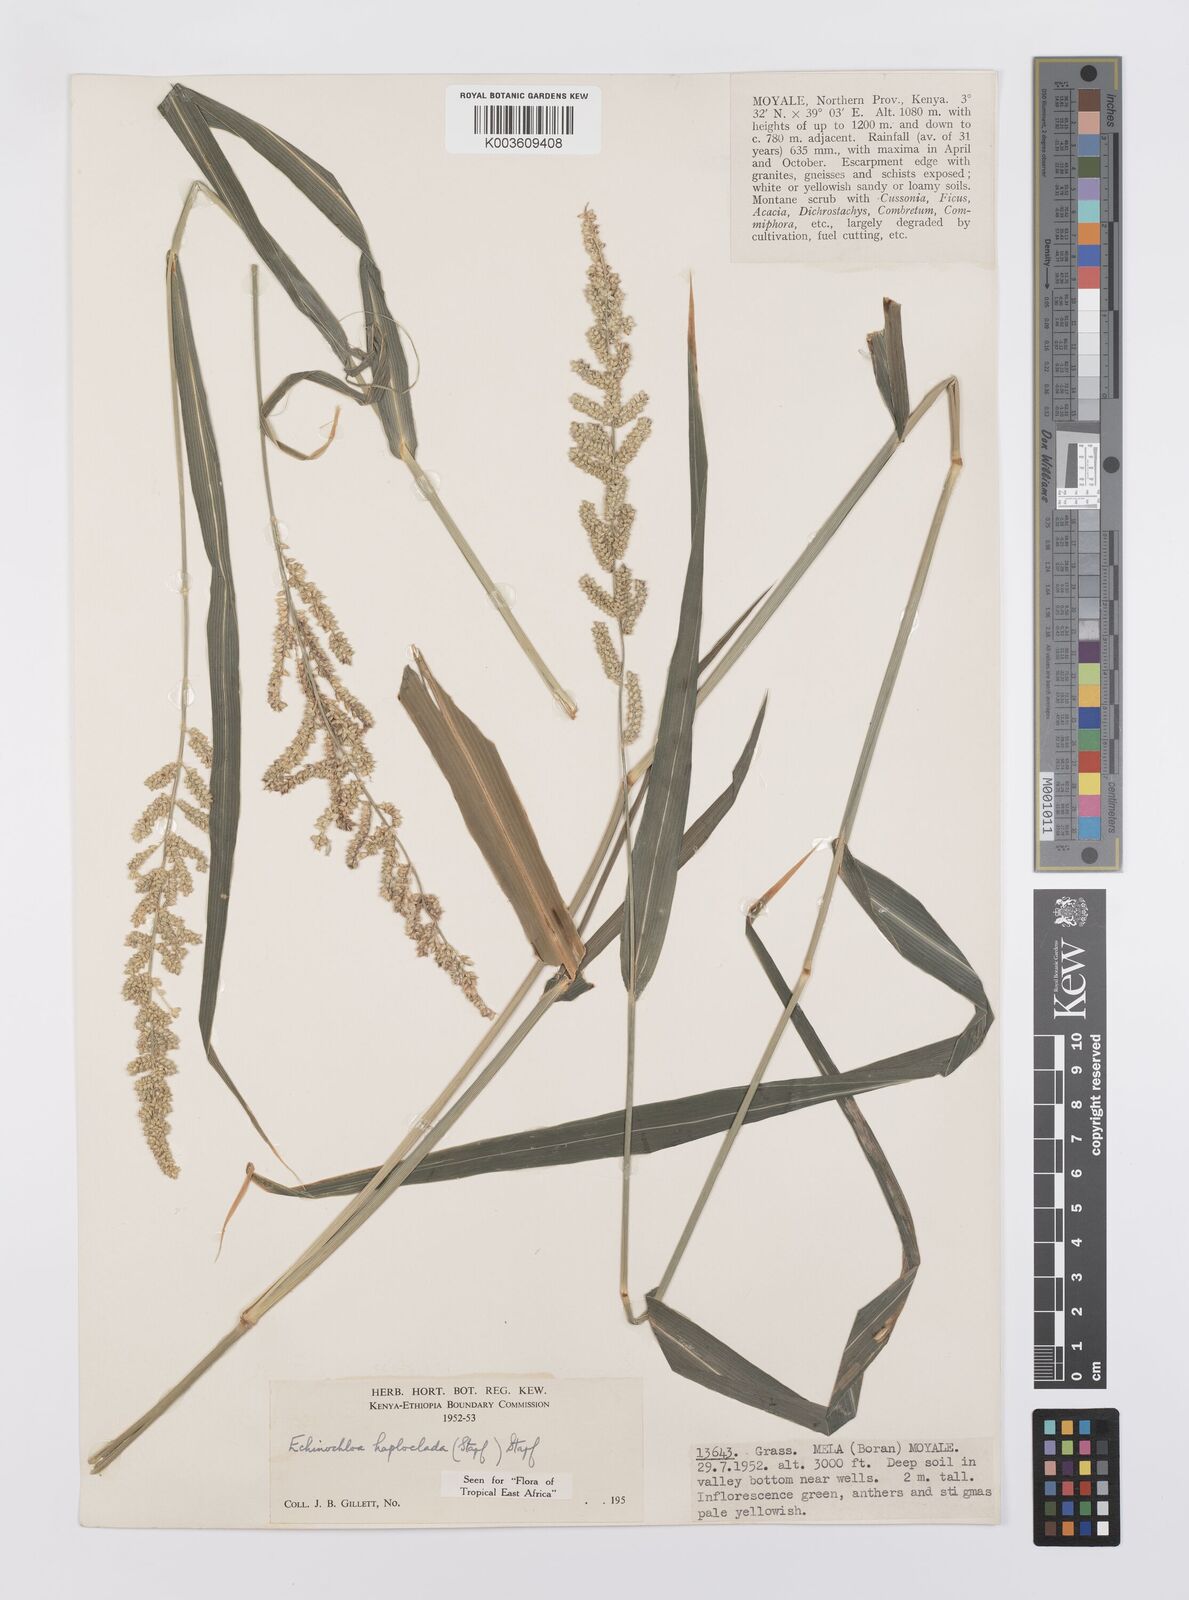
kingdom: Plantae
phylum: Tracheophyta
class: Liliopsida
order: Poales
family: Poaceae
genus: Echinochloa
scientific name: Echinochloa haploclada
